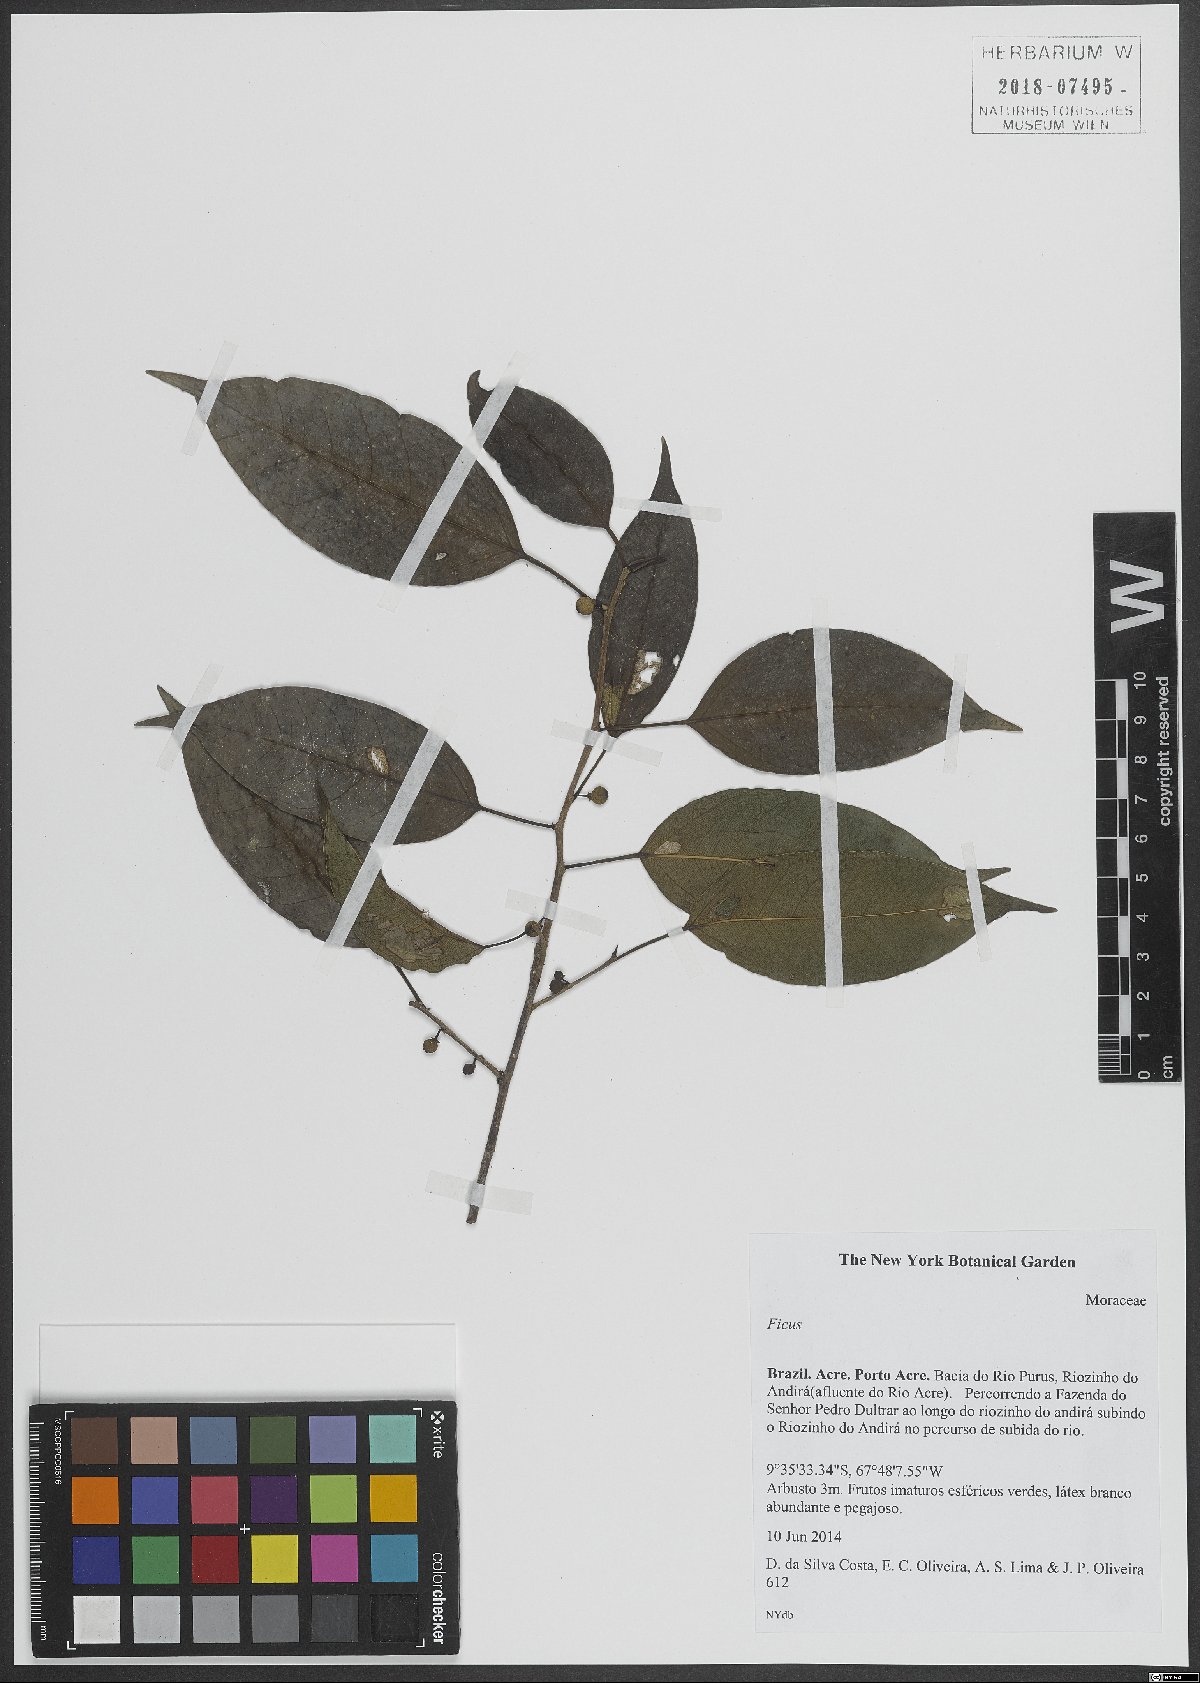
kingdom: Plantae
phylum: Tracheophyta
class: Magnoliopsida
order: Rosales
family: Moraceae
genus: Ficus
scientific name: Ficus
